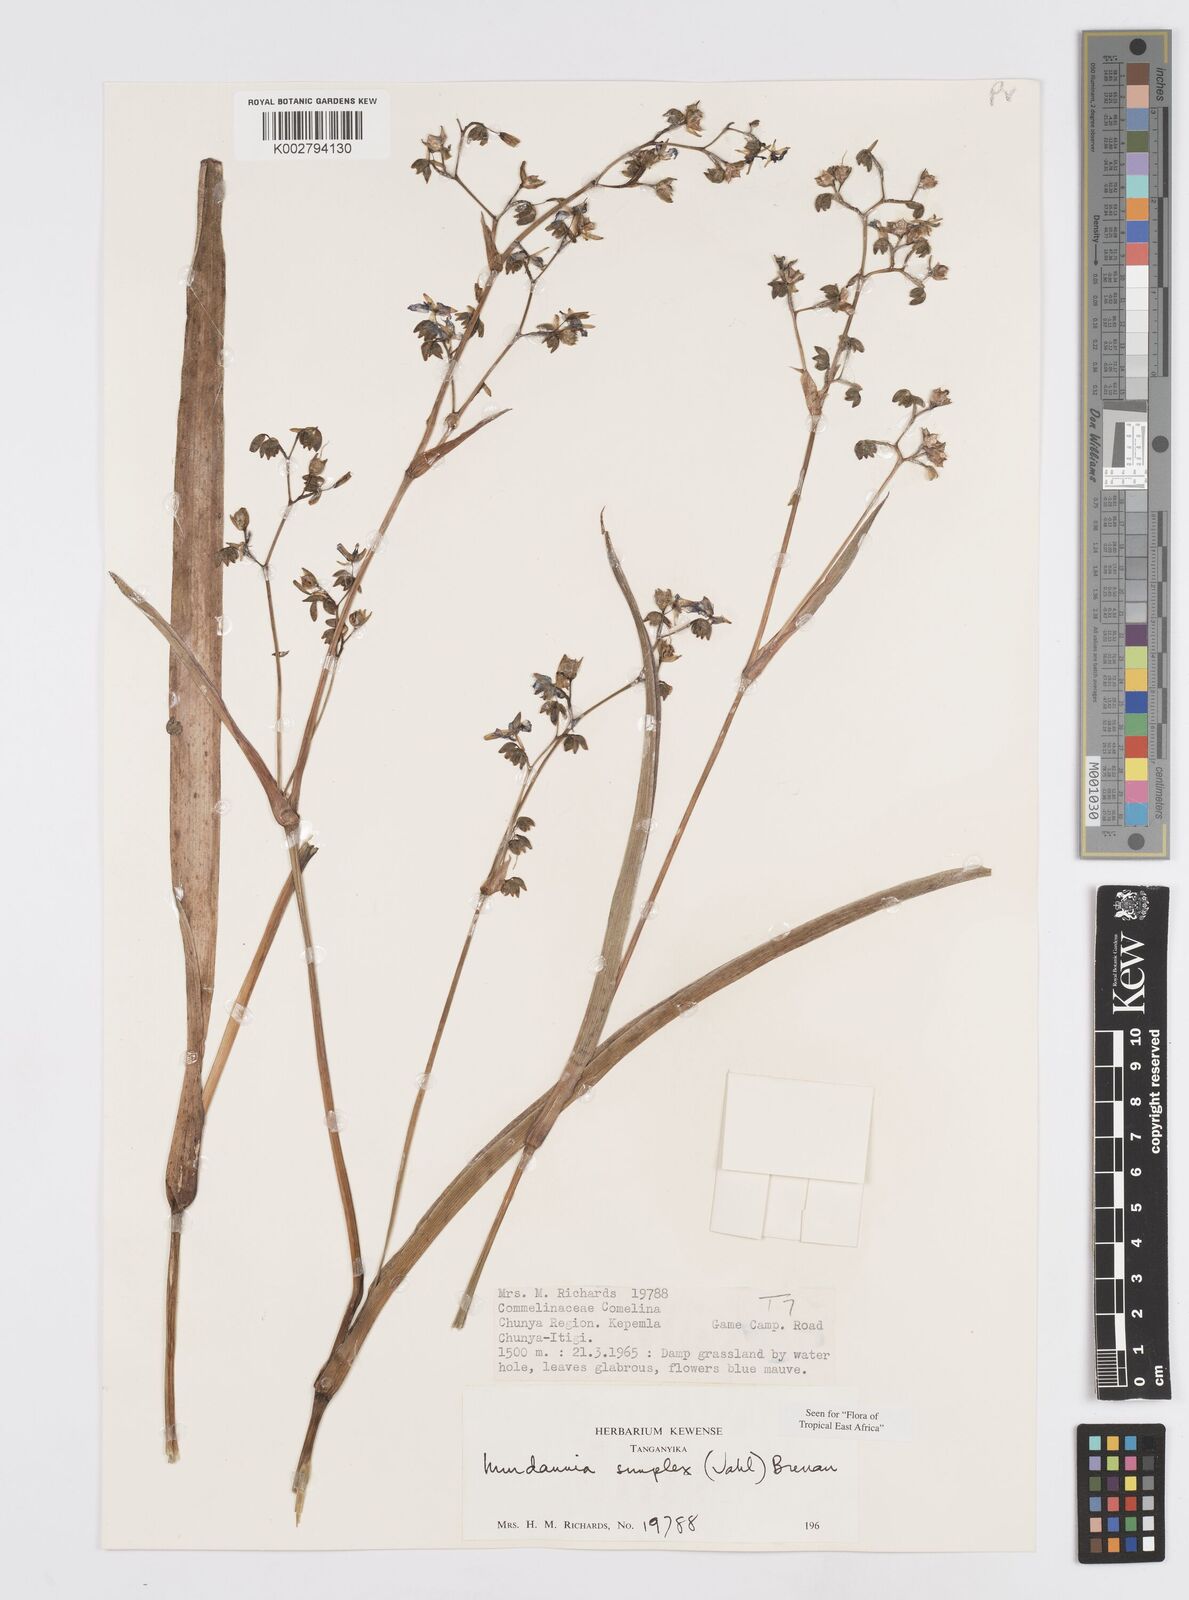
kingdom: Plantae
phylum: Tracheophyta
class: Liliopsida
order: Commelinales
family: Commelinaceae
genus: Murdannia
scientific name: Murdannia simplex
